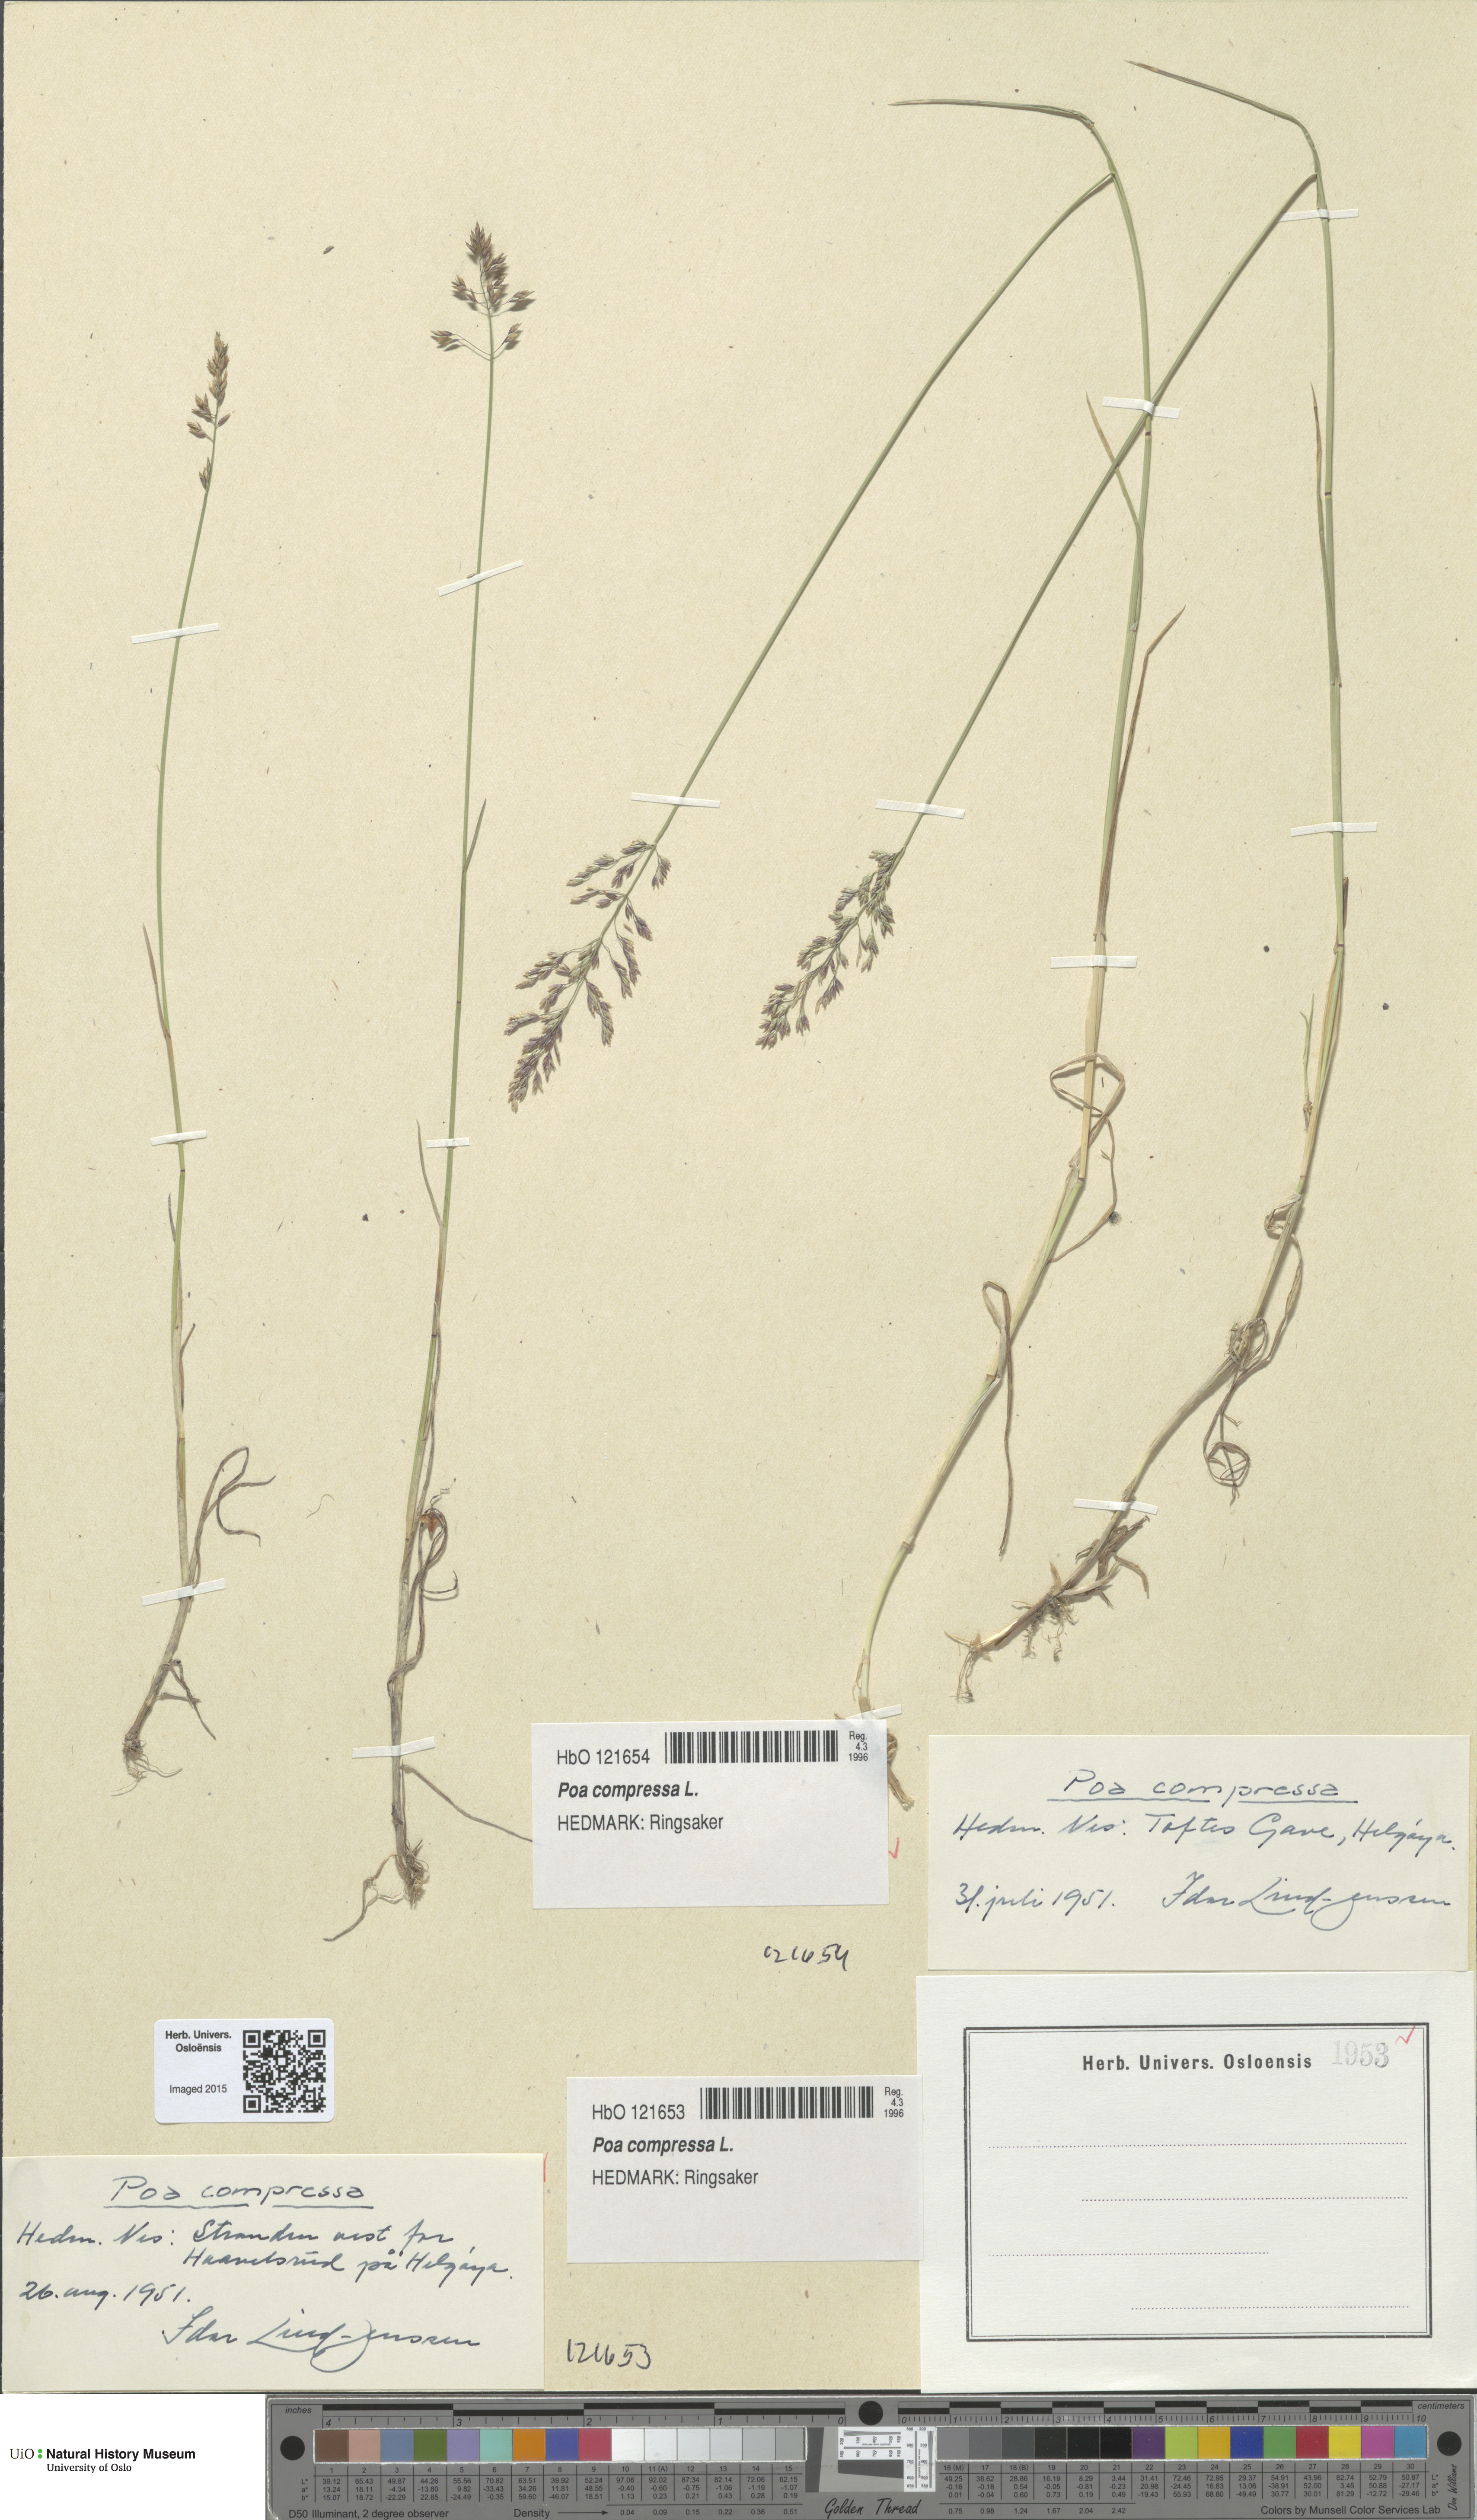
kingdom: Plantae
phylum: Tracheophyta
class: Liliopsida
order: Poales
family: Poaceae
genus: Poa
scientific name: Poa compressa
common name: Canada bluegrass
